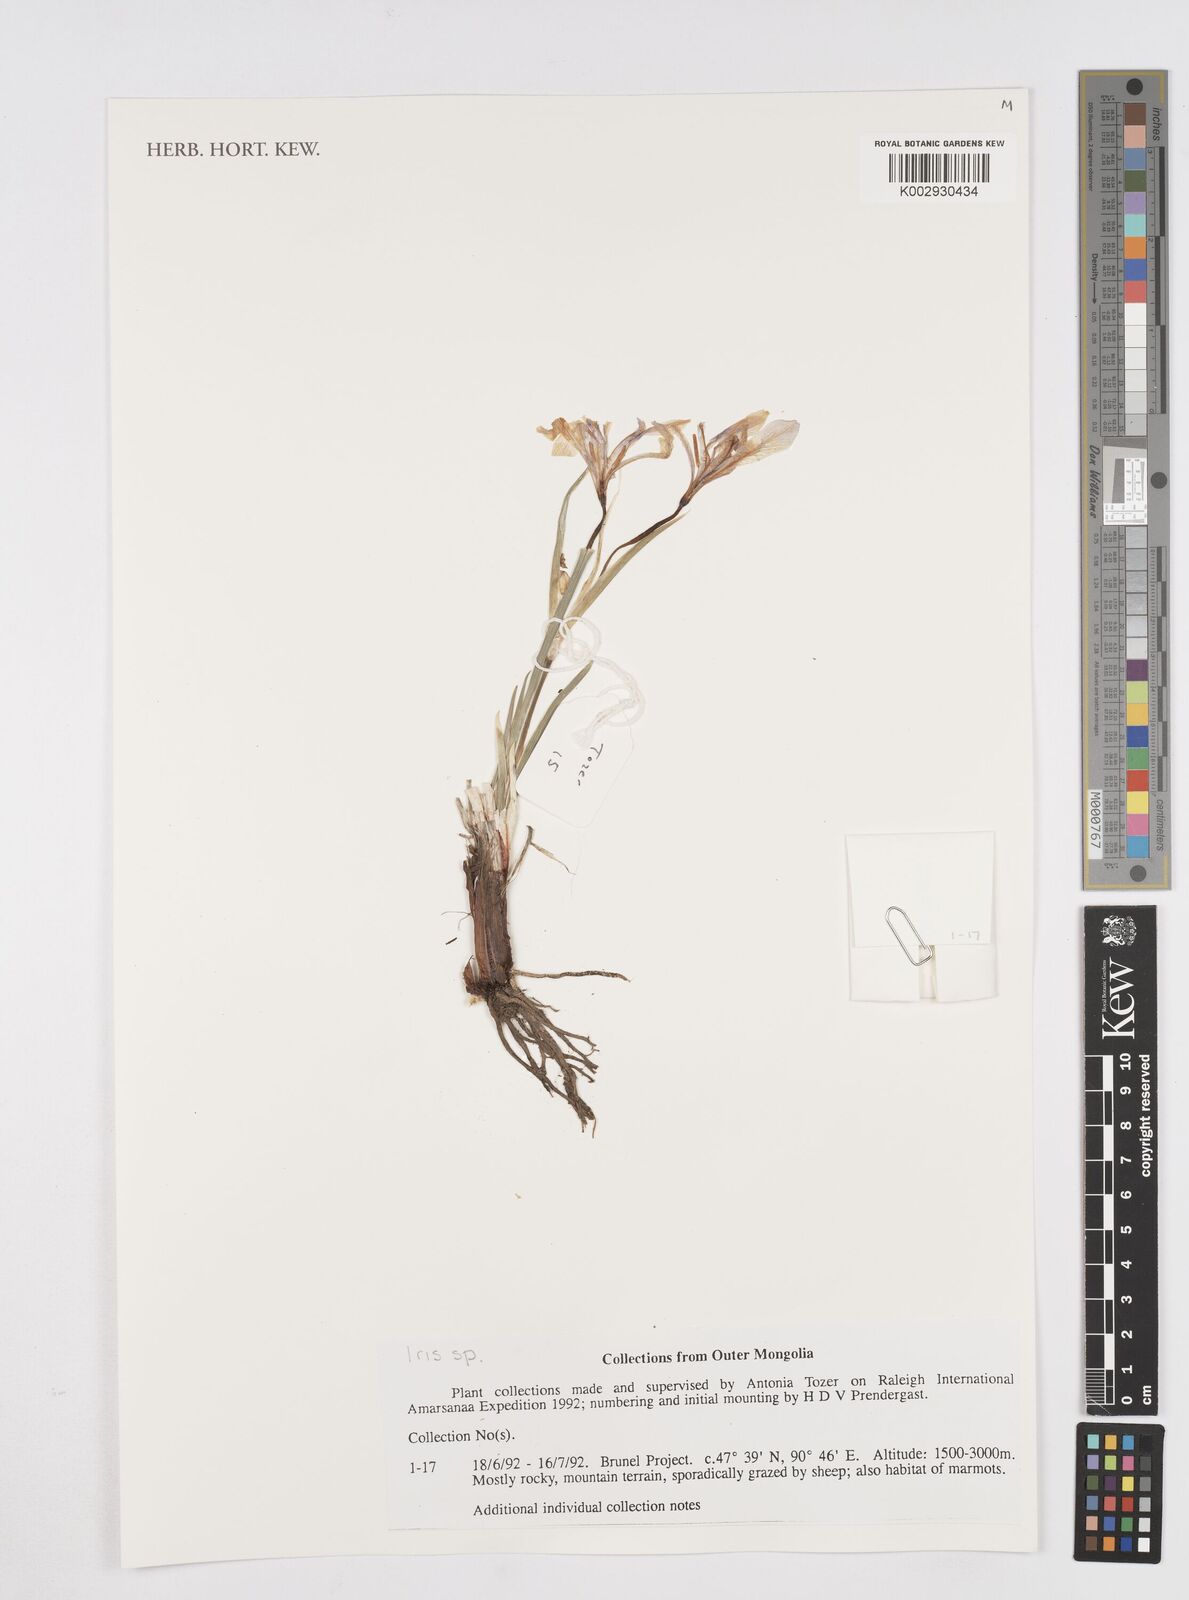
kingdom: Plantae
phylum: Tracheophyta
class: Liliopsida
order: Asparagales
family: Iridaceae
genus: Iris
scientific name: Iris
